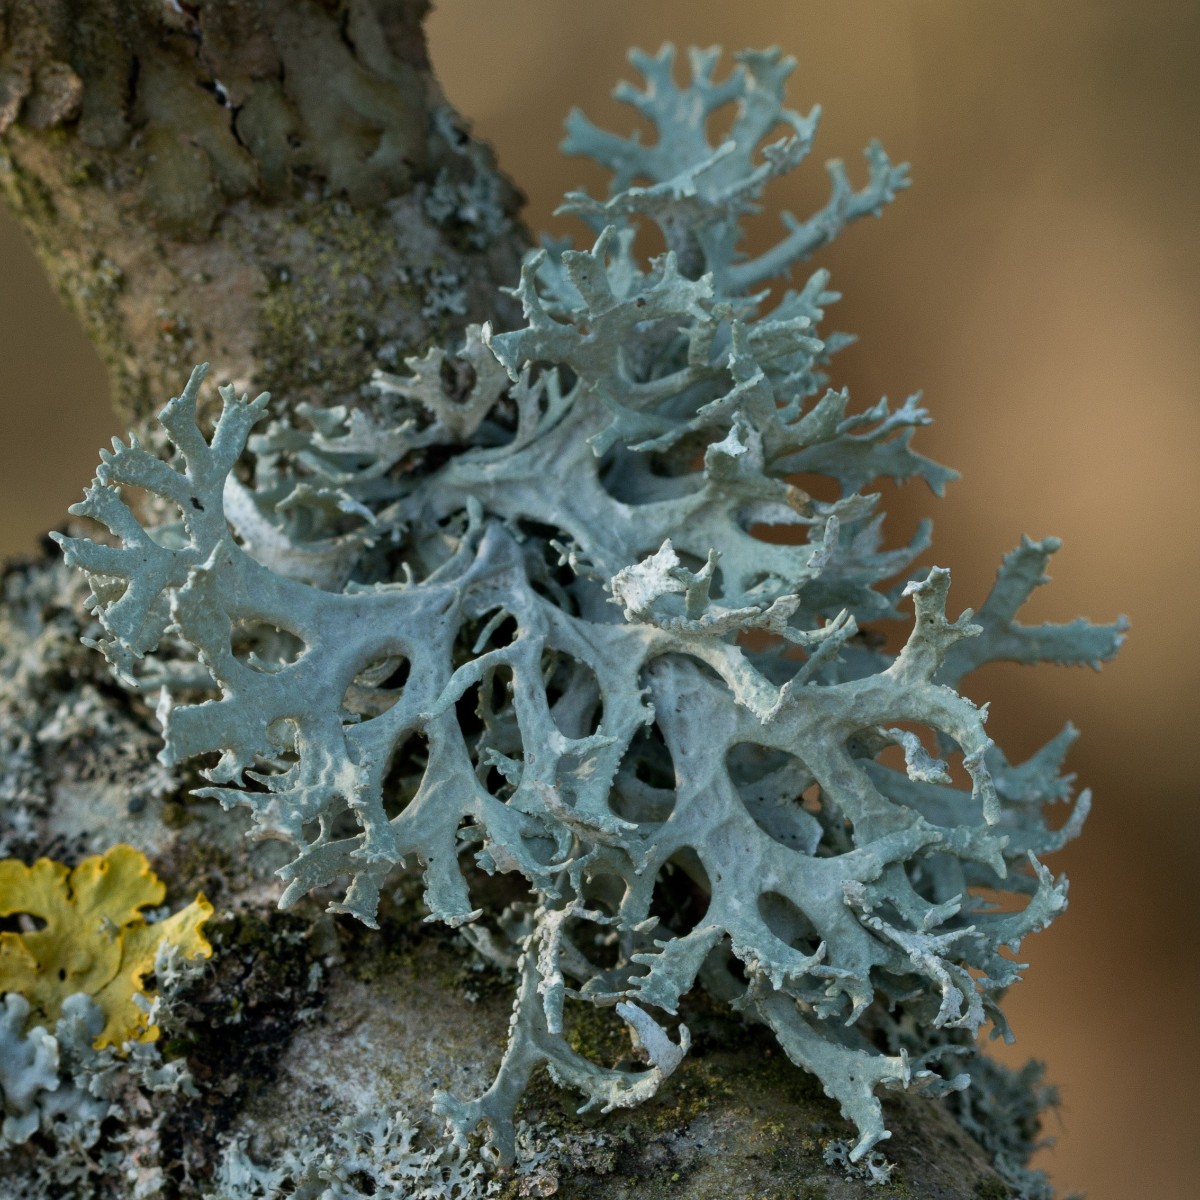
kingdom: Fungi
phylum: Ascomycota
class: Lecanoromycetes
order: Lecanorales
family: Parmeliaceae
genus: Evernia
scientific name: Evernia prunastri
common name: almindelig slåenlav
